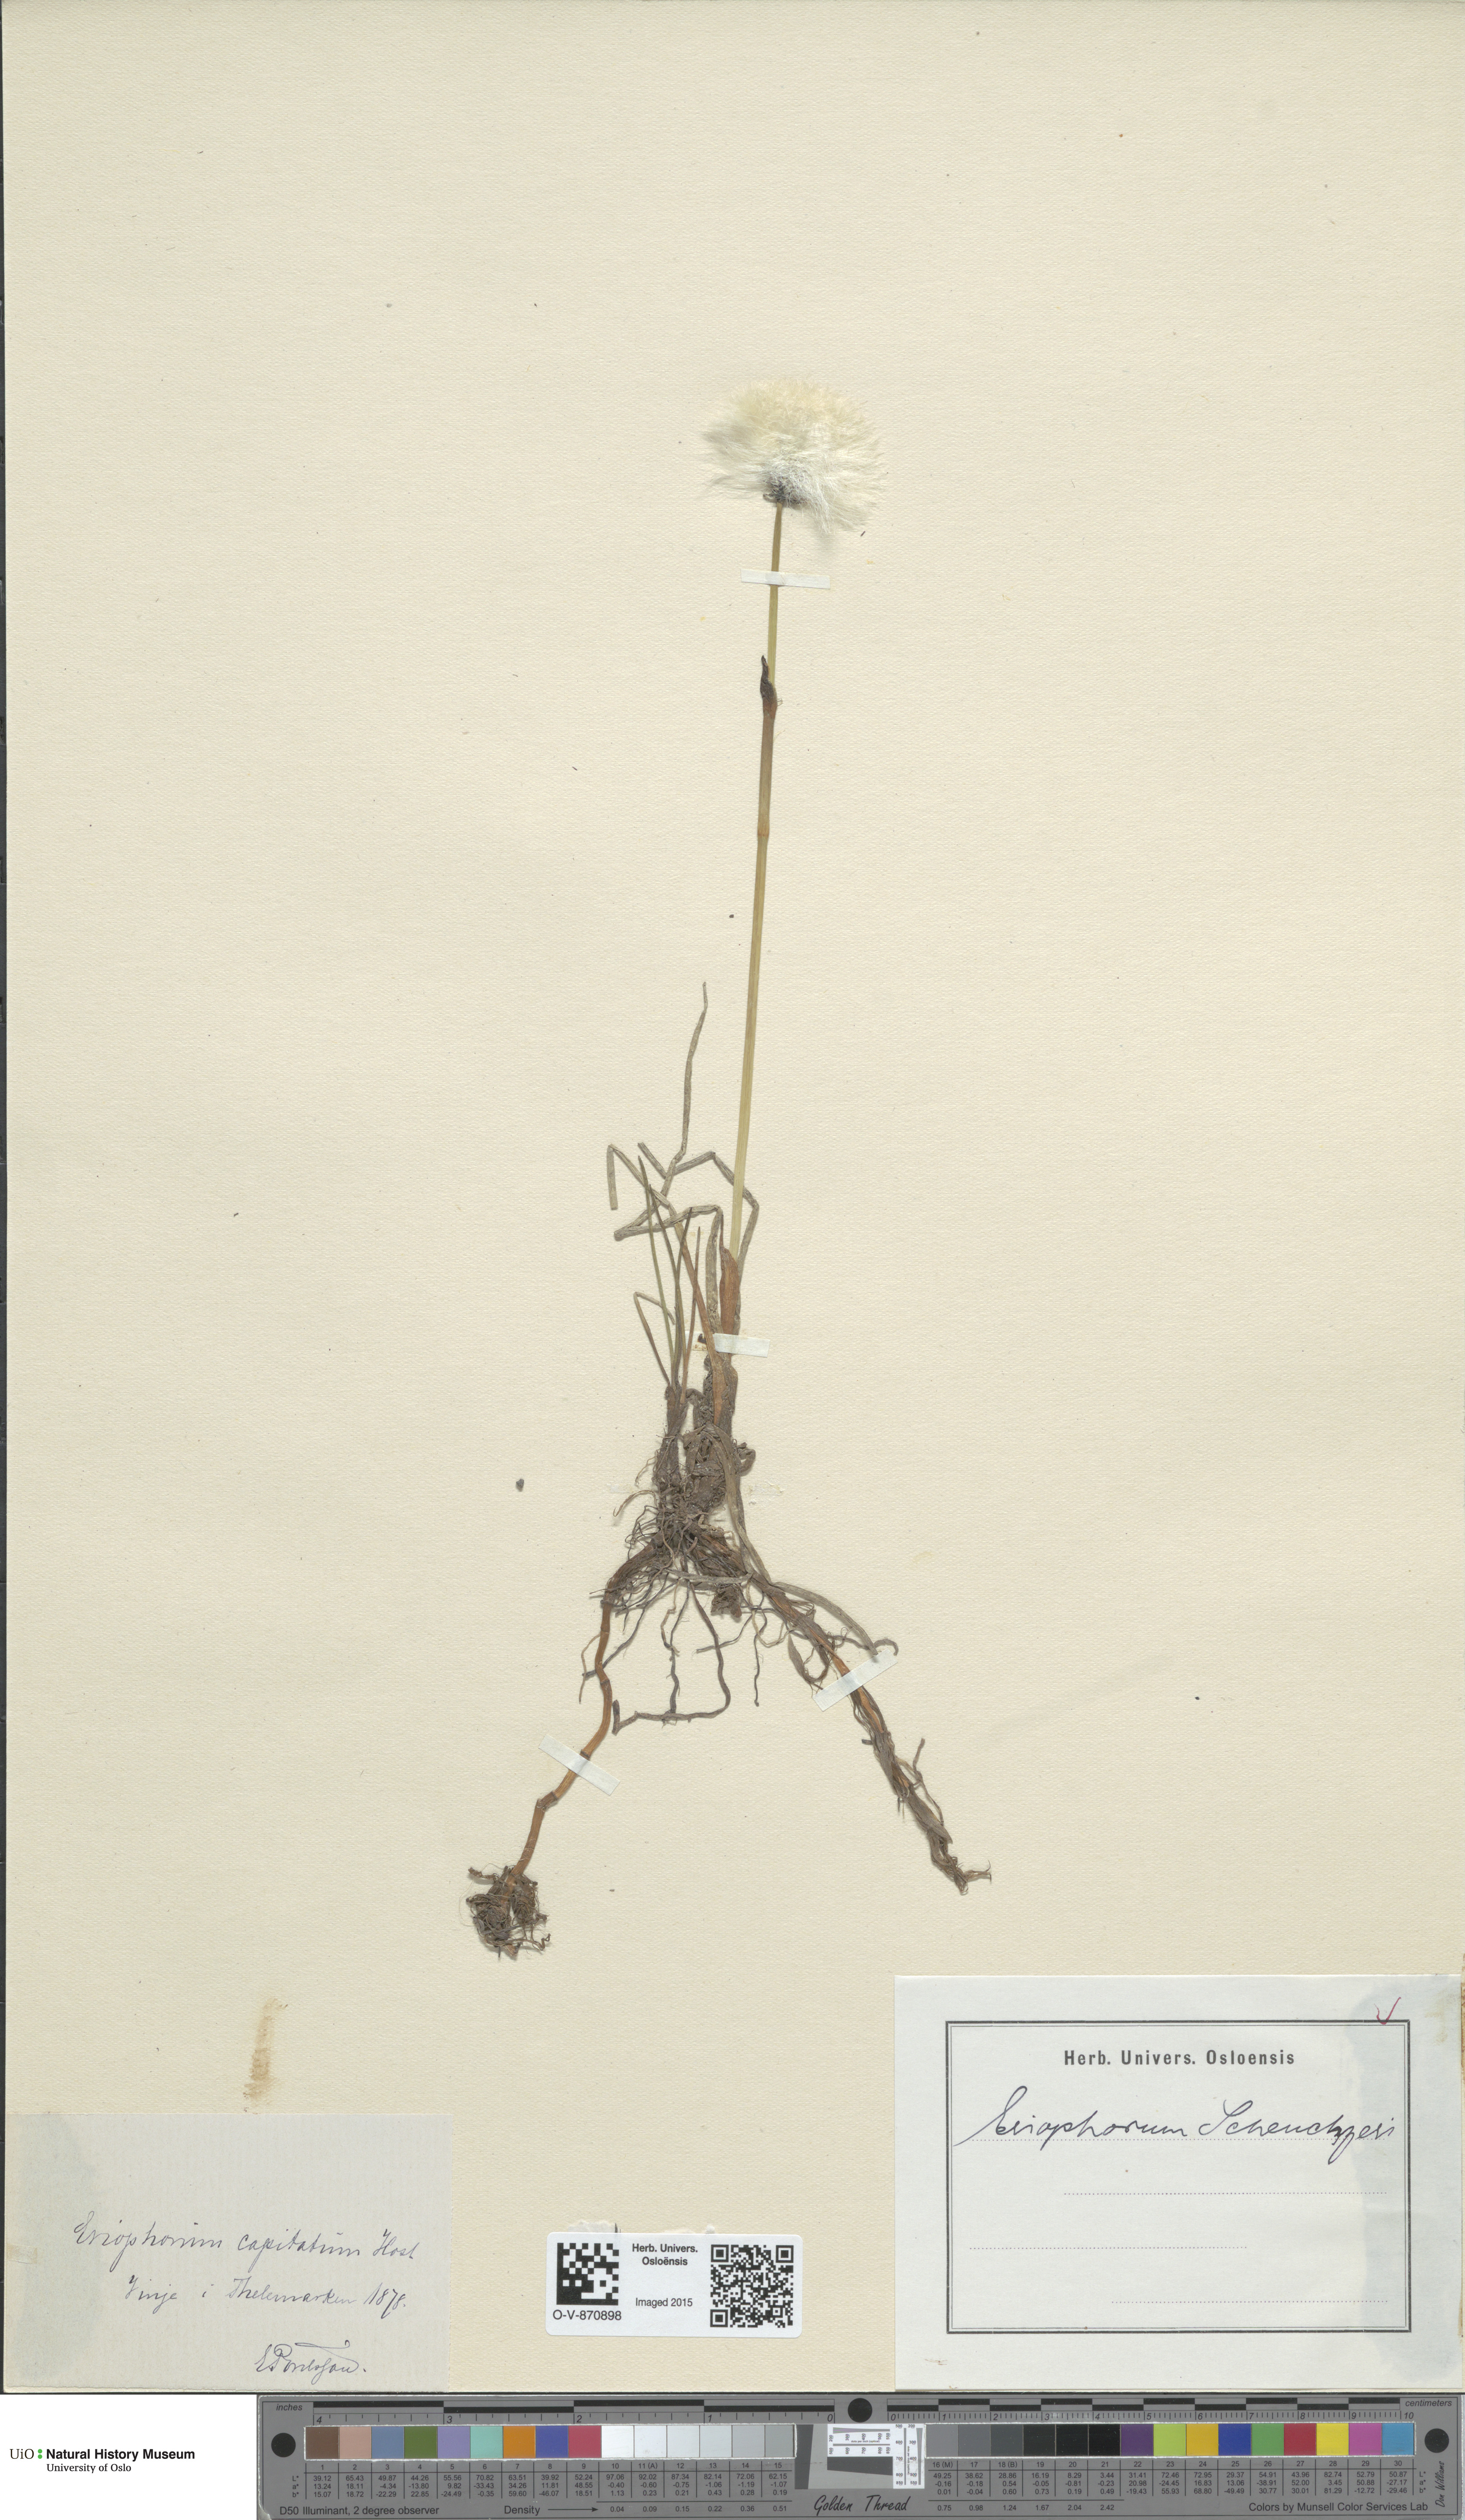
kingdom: Plantae
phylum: Tracheophyta
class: Liliopsida
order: Poales
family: Cyperaceae
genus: Eriophorum
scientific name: Eriophorum scheuchzeri
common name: Scheuchzer's cottongrass
